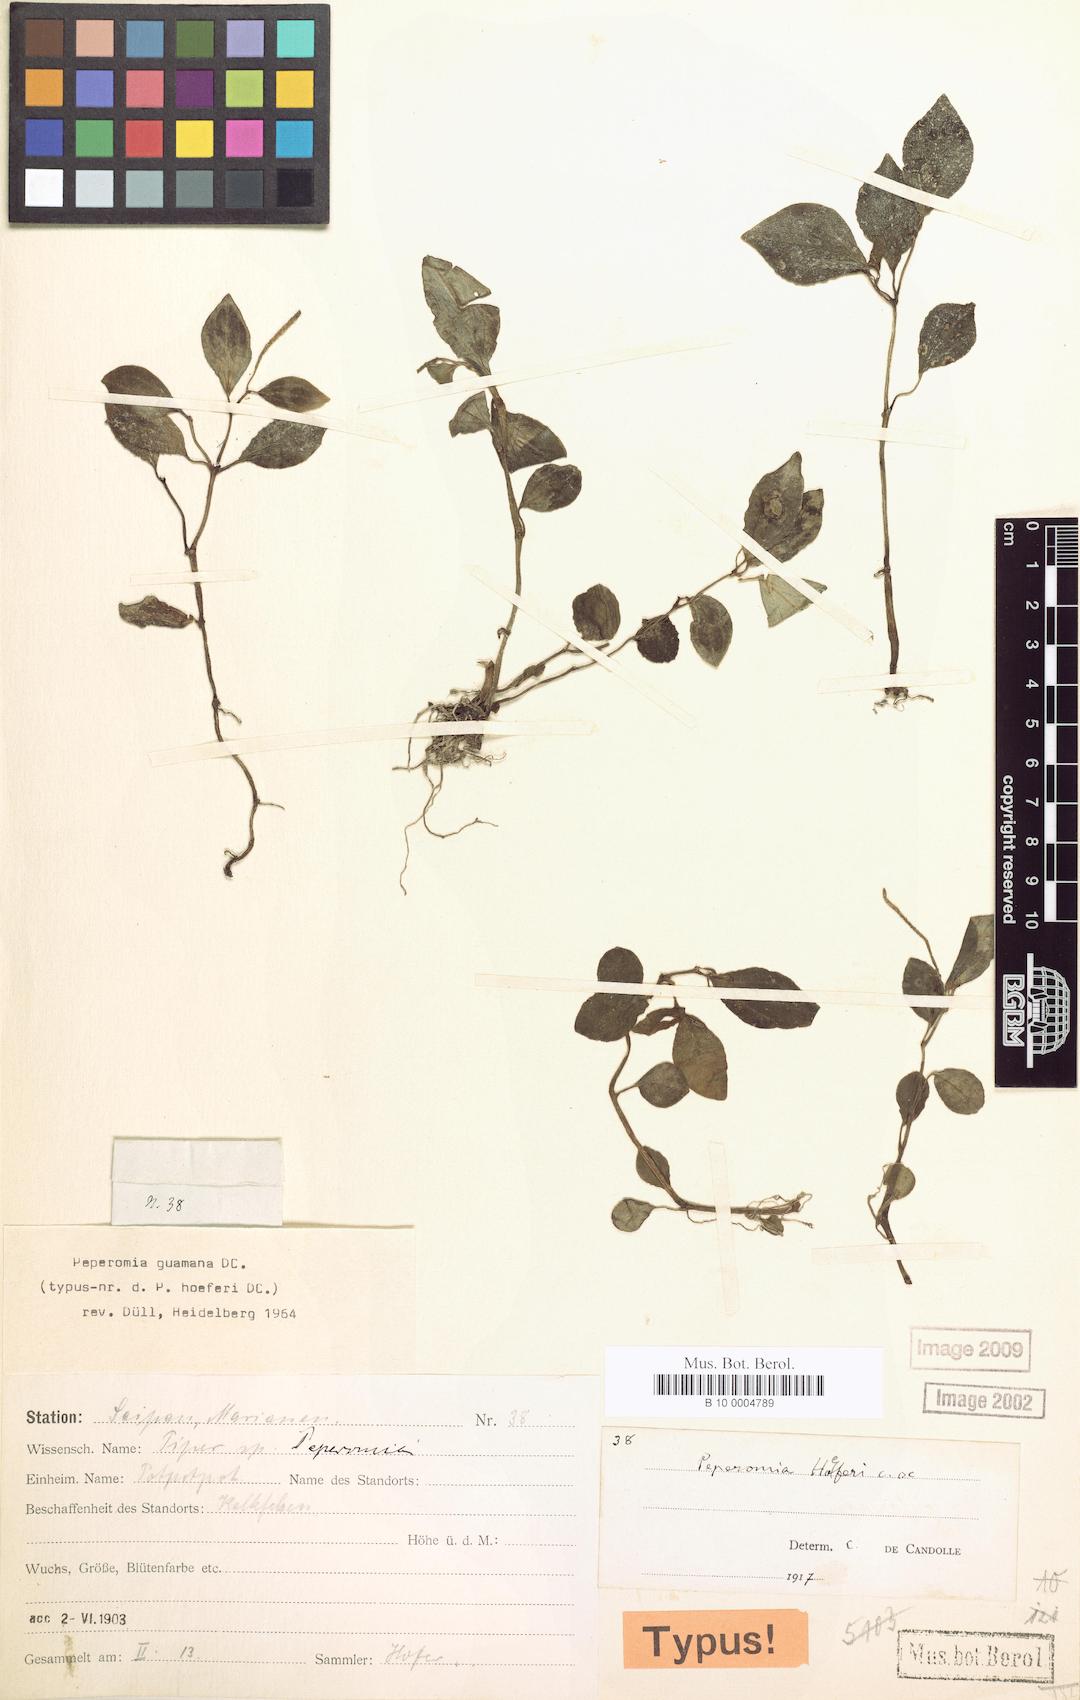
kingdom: Plantae
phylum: Tracheophyta
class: Magnoliopsida
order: Piperales
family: Piperaceae
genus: Peperomia
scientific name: Peperomia mariannensis
